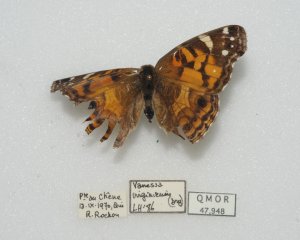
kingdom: Animalia
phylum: Arthropoda
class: Insecta
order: Lepidoptera
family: Nymphalidae
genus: Vanessa
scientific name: Vanessa virginiensis
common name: American Lady
